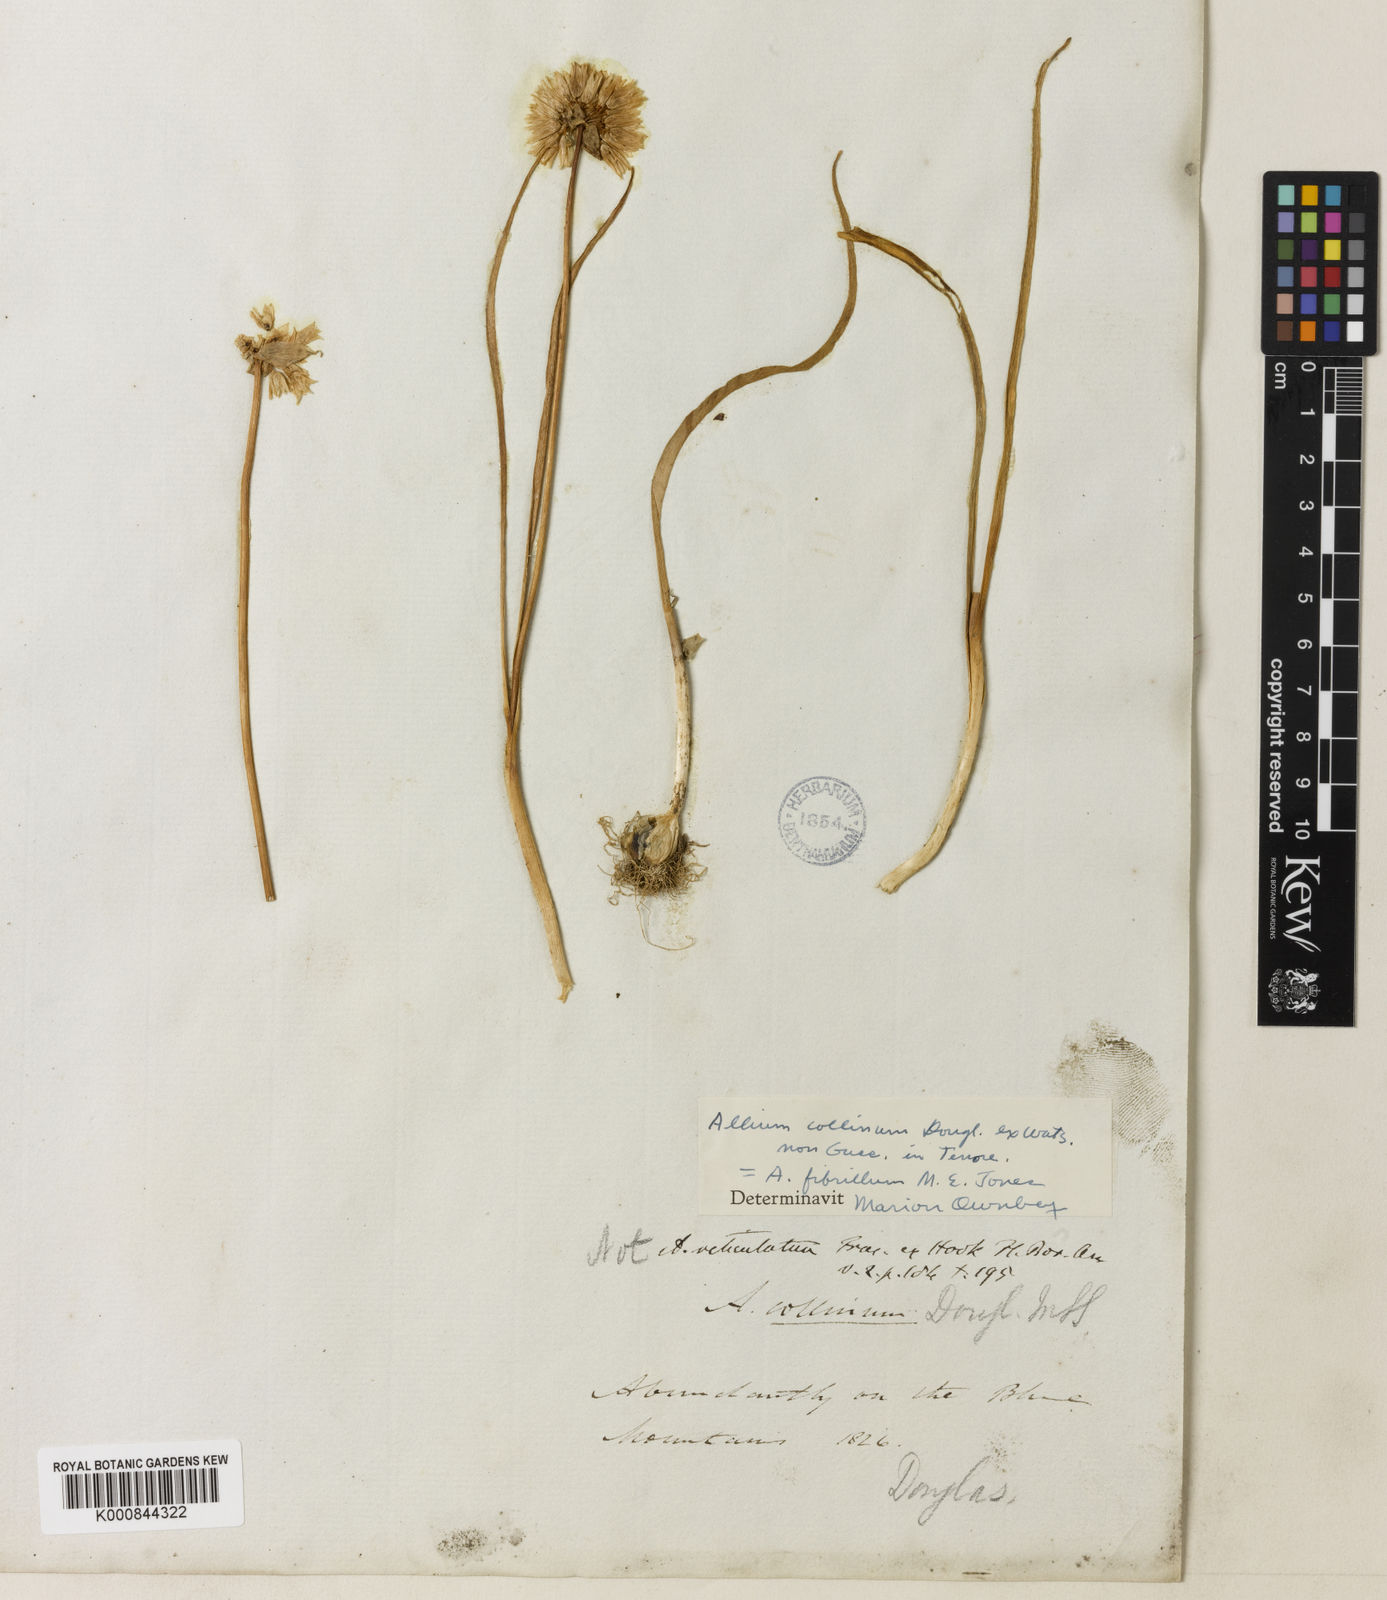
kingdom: Plantae
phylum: Tracheophyta
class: Liliopsida
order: Asparagales
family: Amaryllidaceae
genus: Allium
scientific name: Allium fibrillum
